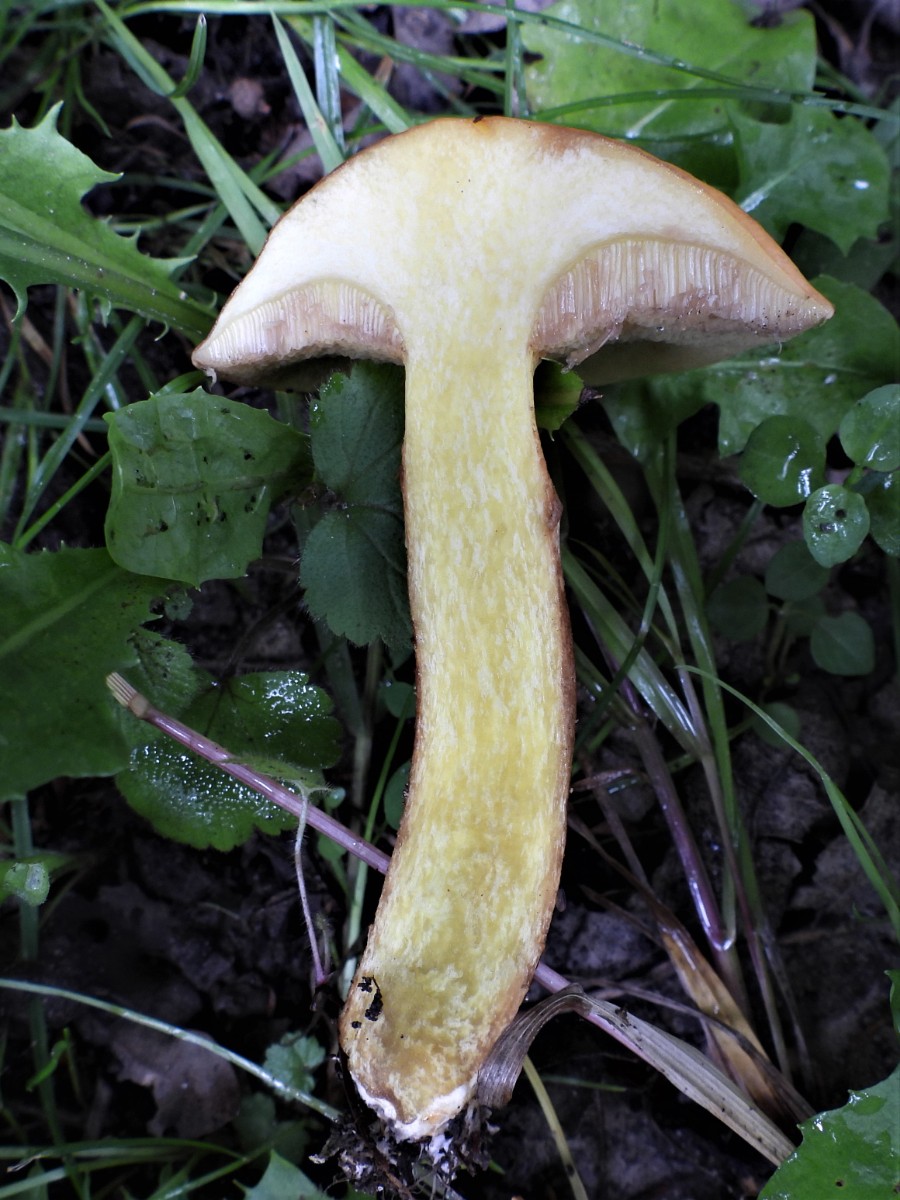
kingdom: Fungi
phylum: Basidiomycota
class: Agaricomycetes
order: Boletales
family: Suillaceae
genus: Suillus
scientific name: Suillus grevillei
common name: lærke-slimrørhat
